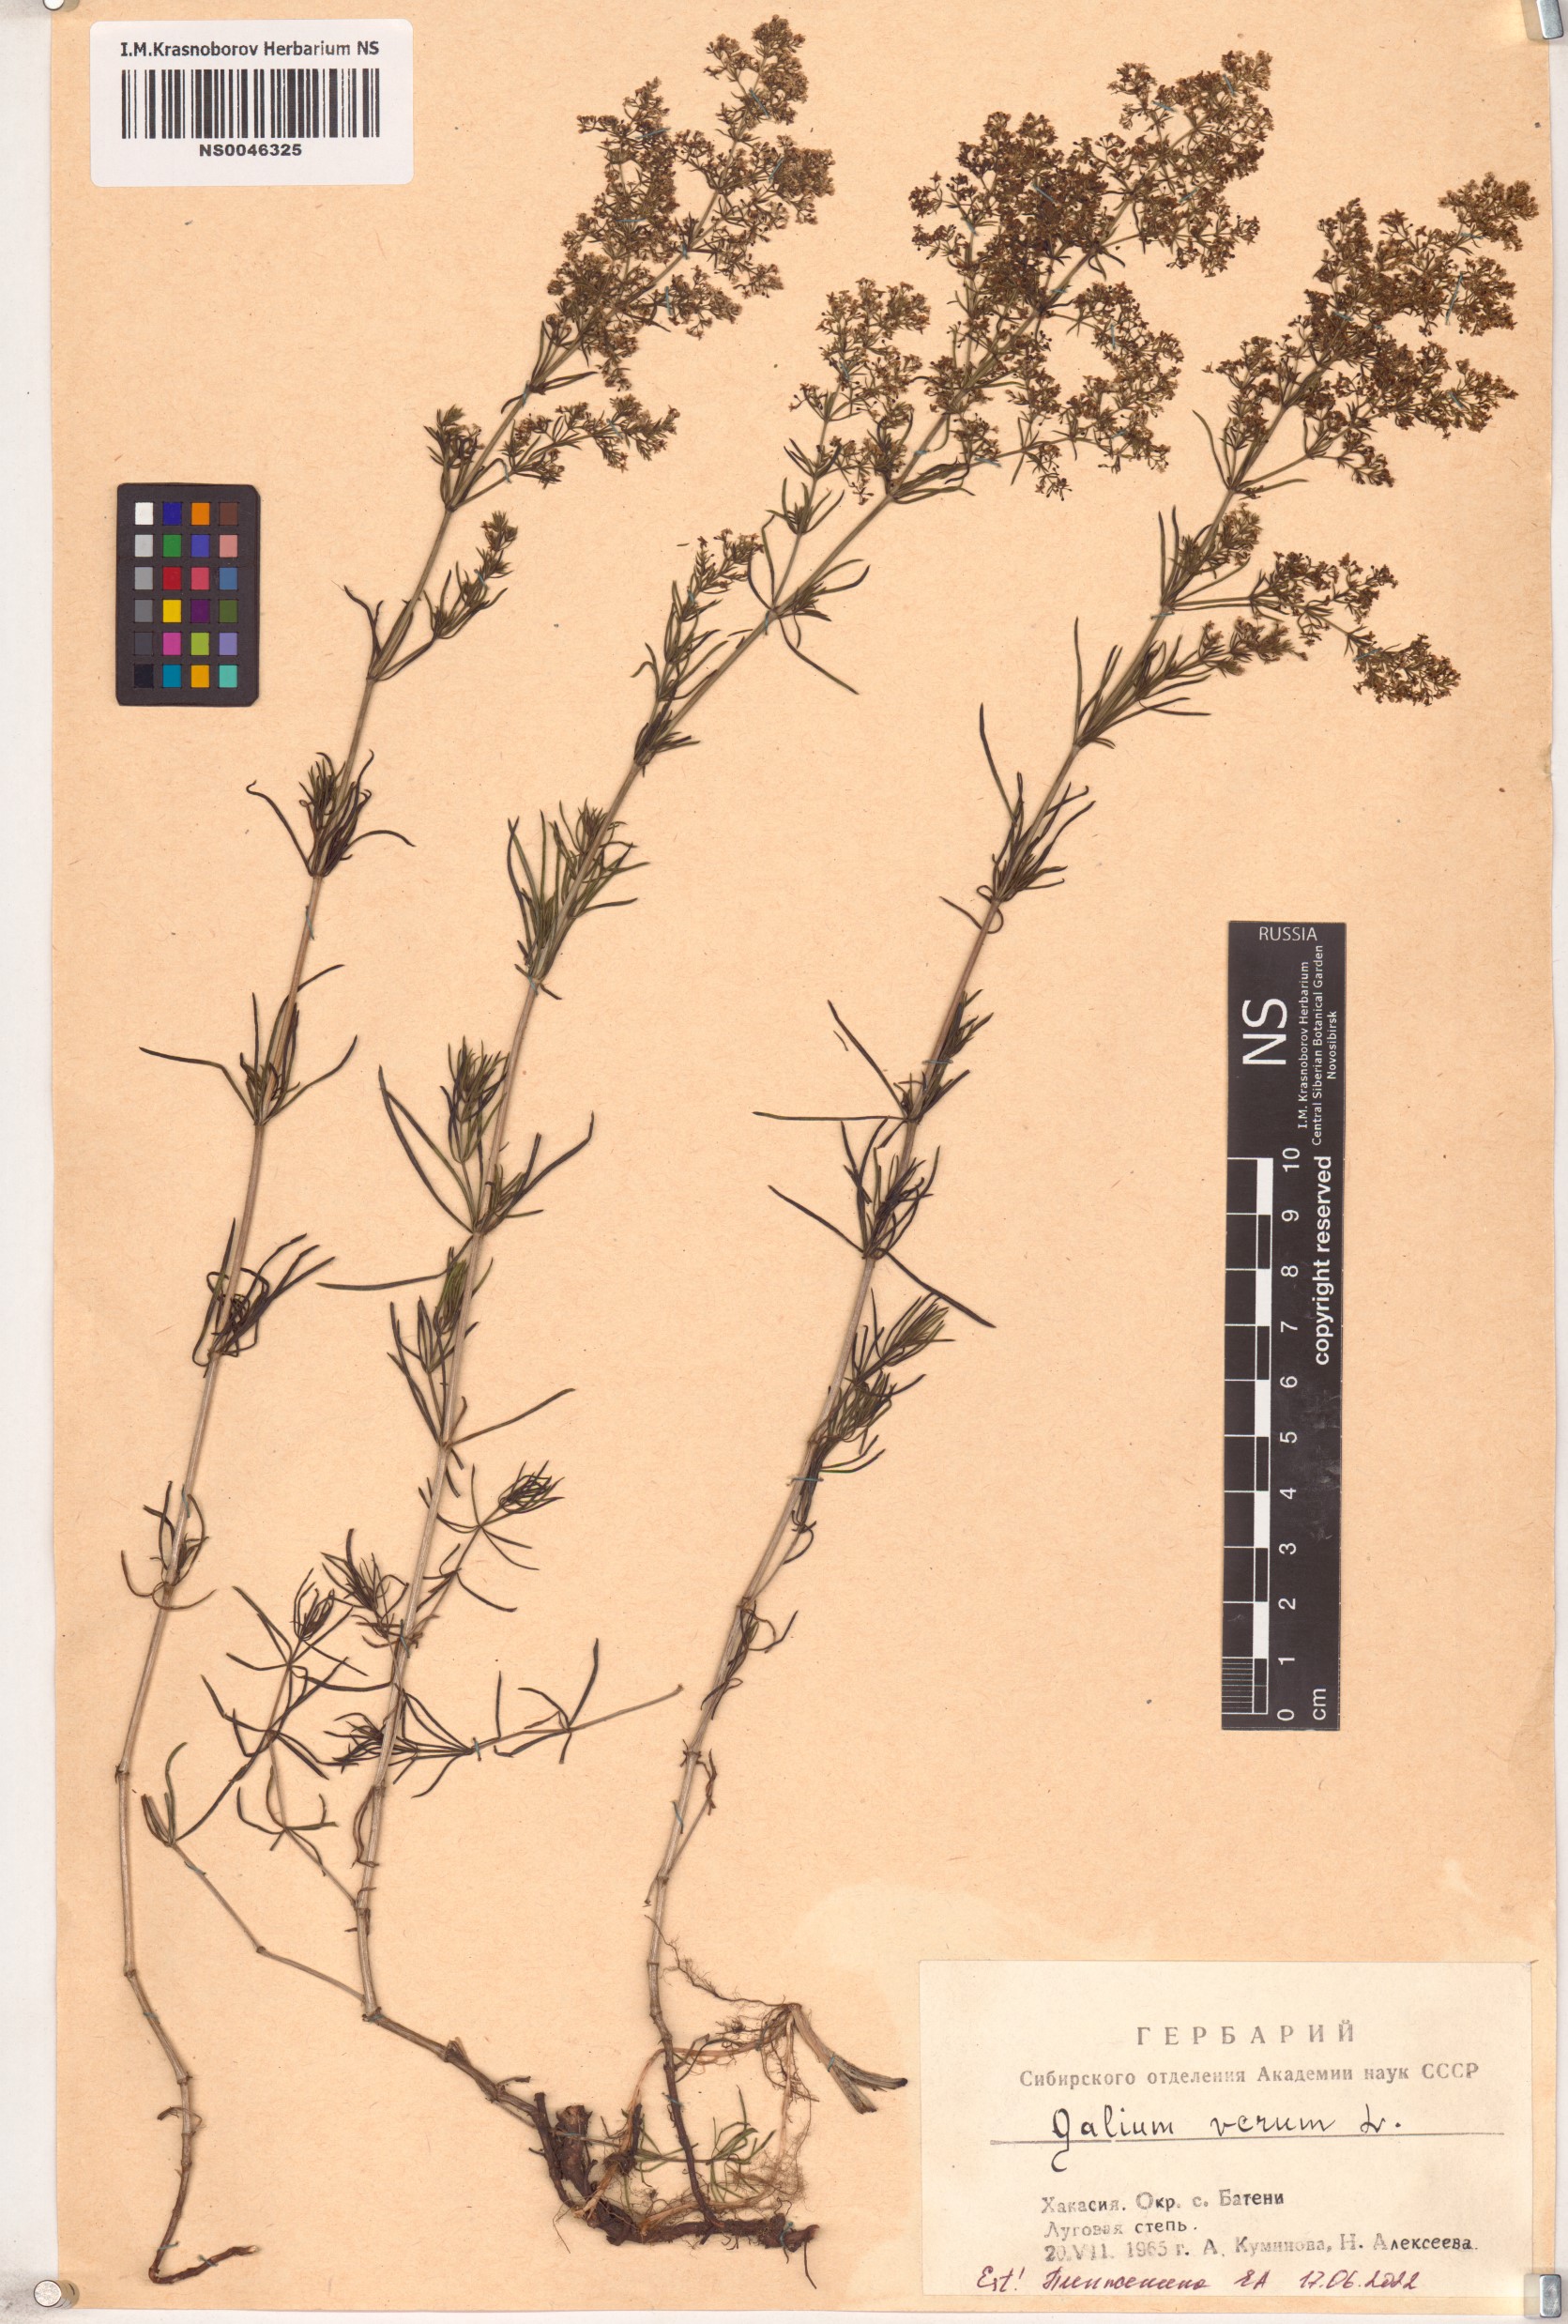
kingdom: Plantae
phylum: Tracheophyta
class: Magnoliopsida
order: Gentianales
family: Rubiaceae
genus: Galium
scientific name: Galium verum
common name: Lady's bedstraw
